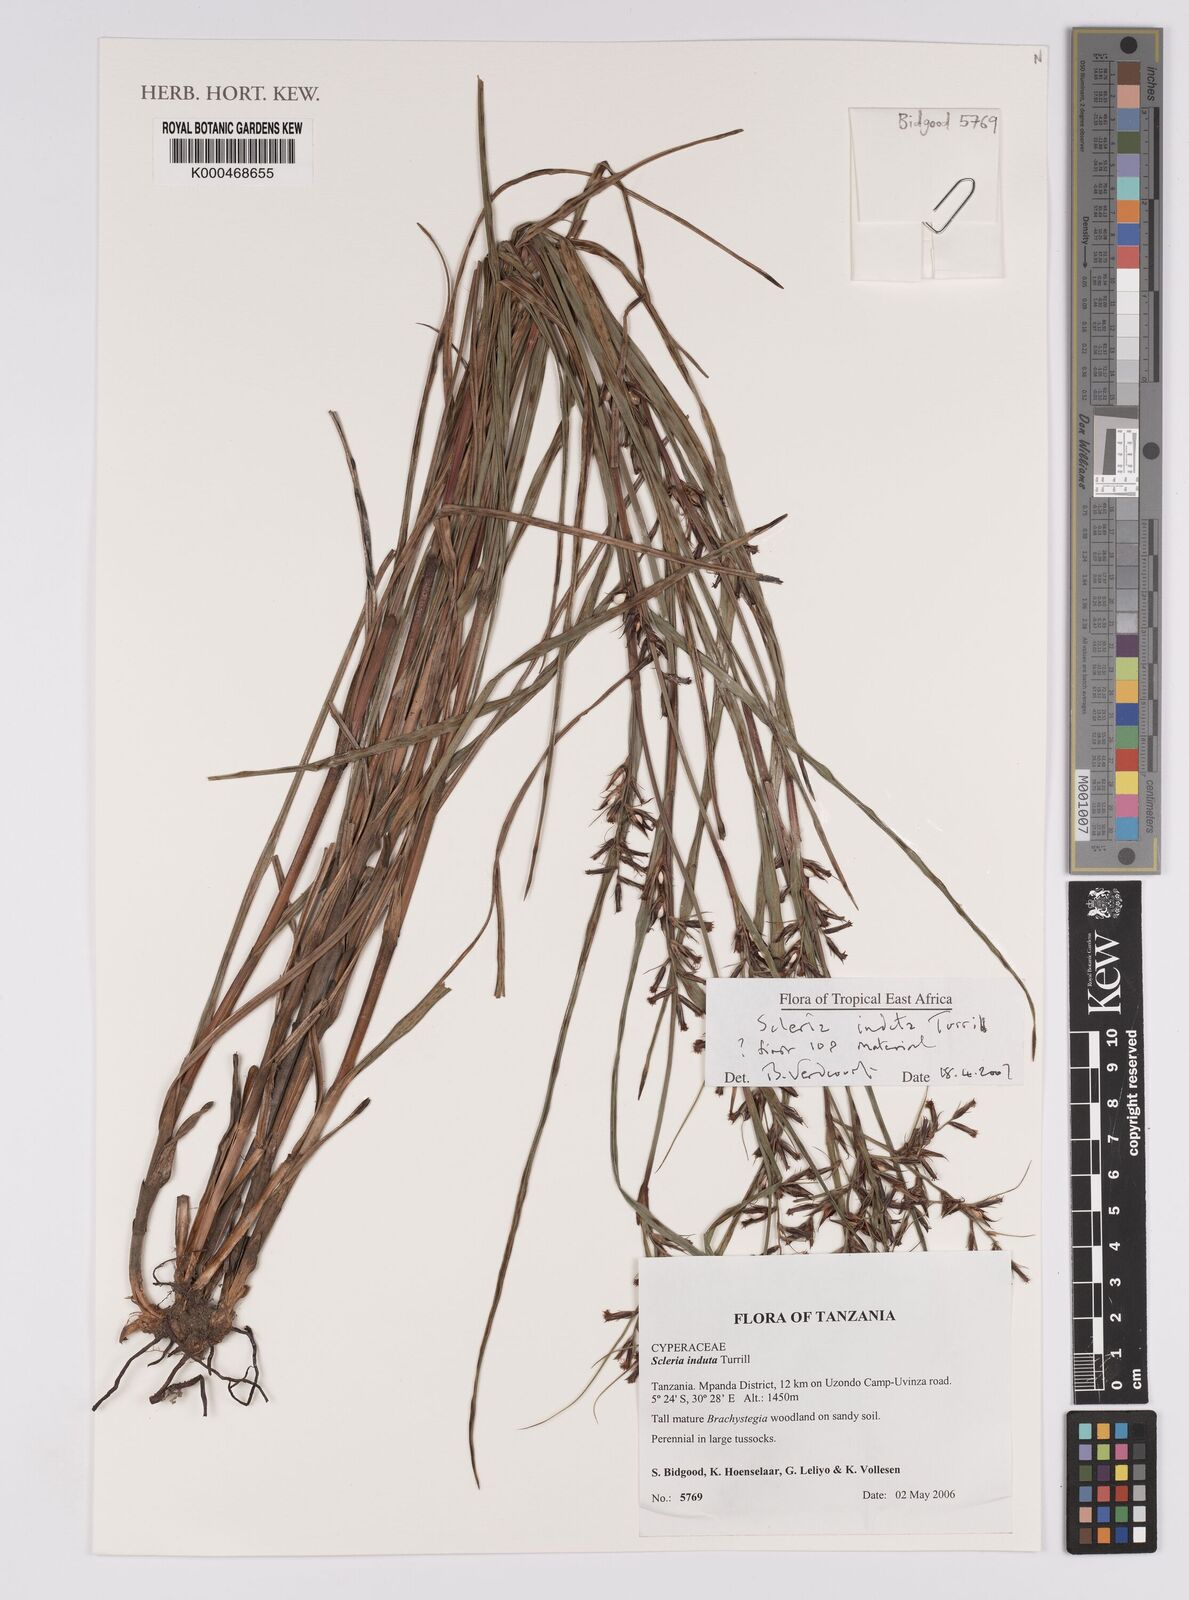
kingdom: Plantae
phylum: Tracheophyta
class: Liliopsida
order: Poales
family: Cyperaceae
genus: Scleria
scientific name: Scleria induta
